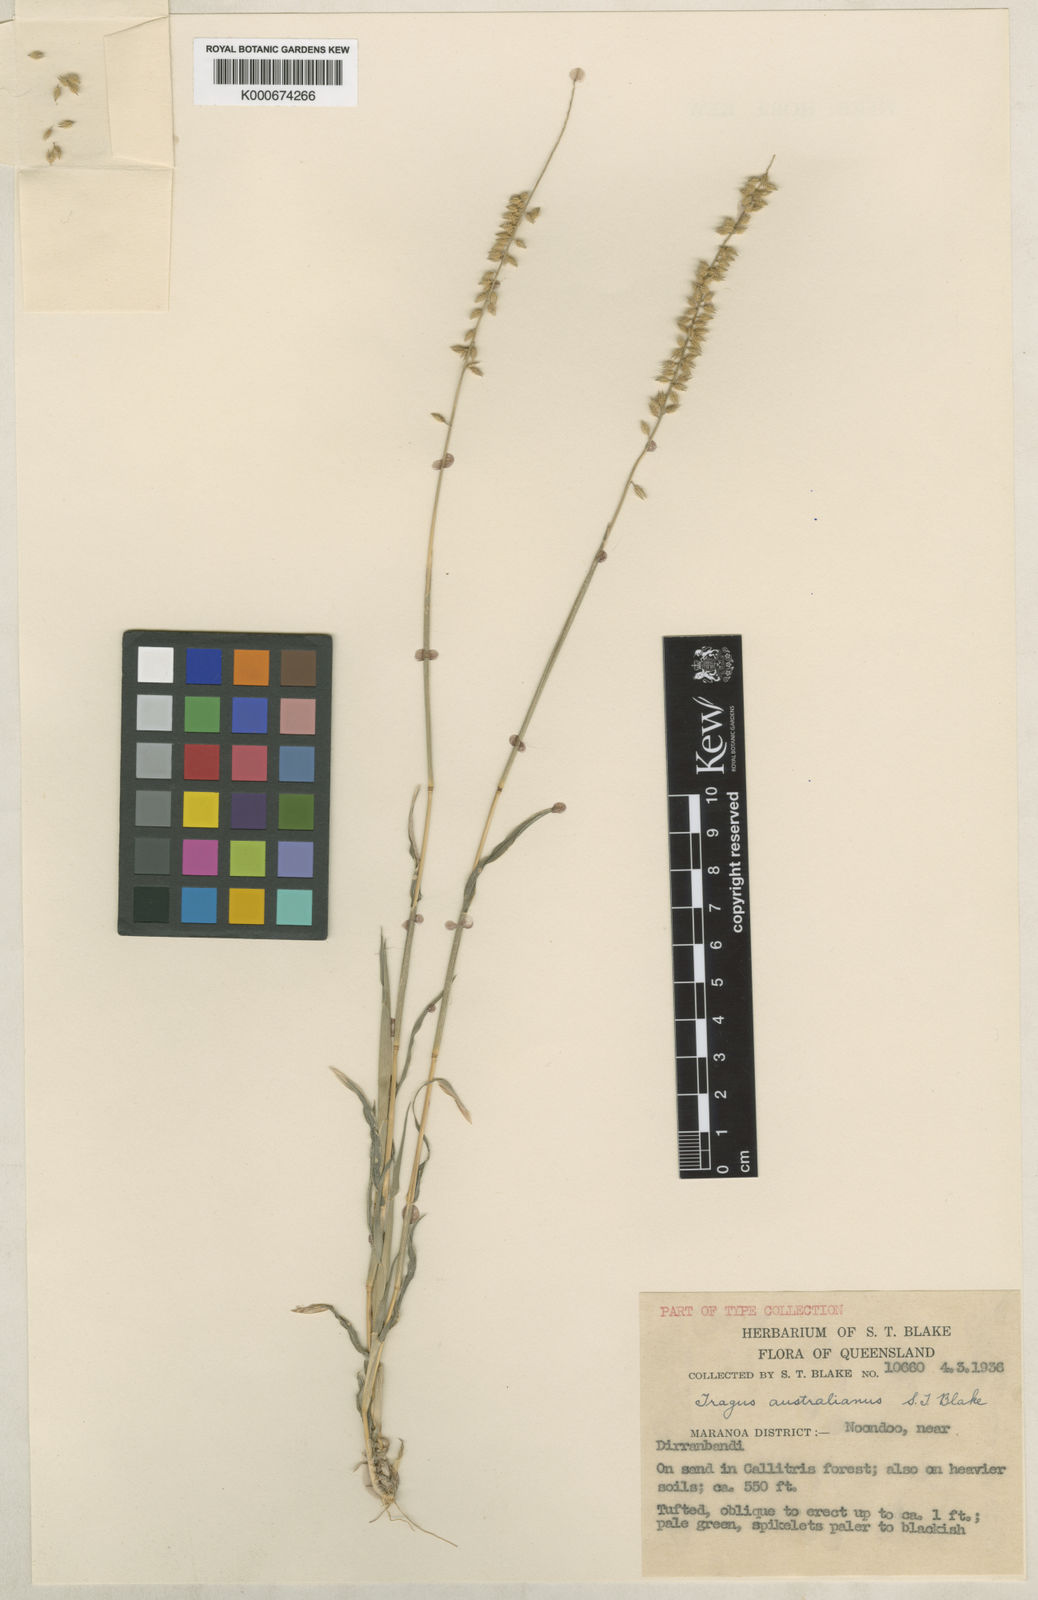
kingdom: Plantae
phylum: Tracheophyta
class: Liliopsida
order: Poales
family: Poaceae
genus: Tragus
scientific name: Tragus australianus
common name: Australian bur-grass
